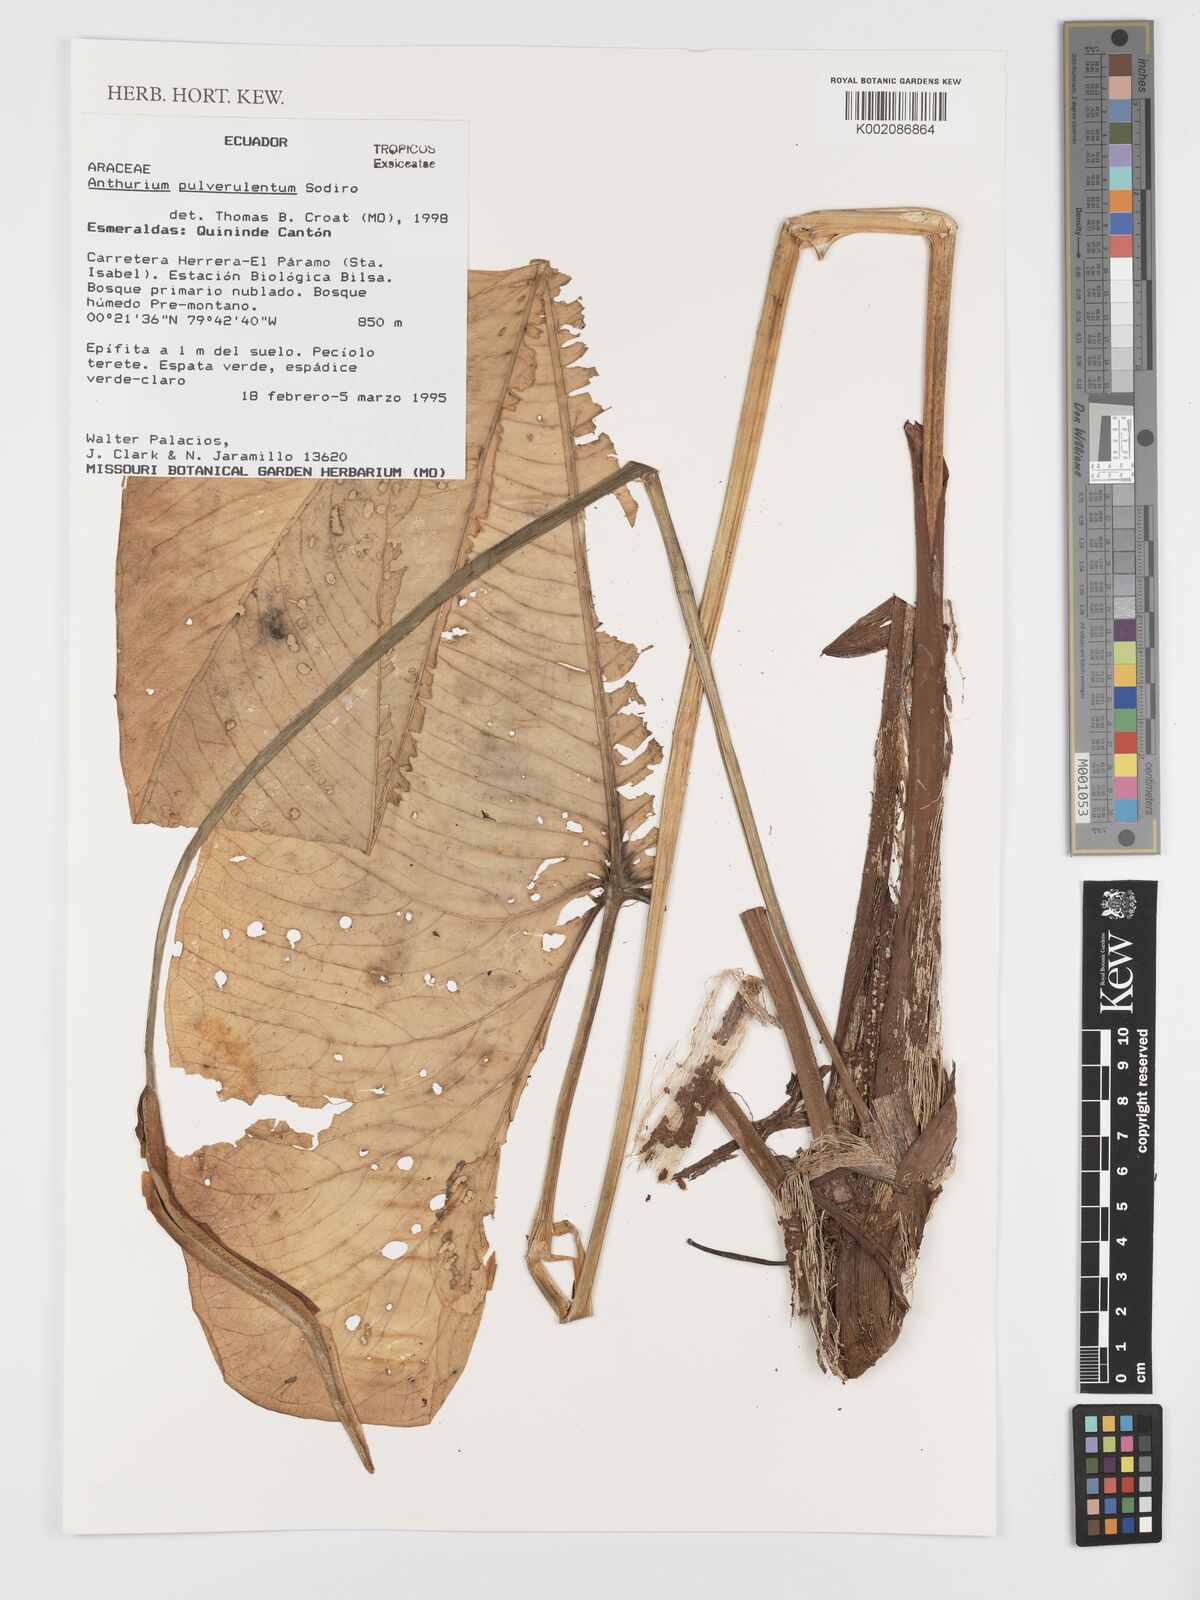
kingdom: Plantae
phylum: Tracheophyta
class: Liliopsida
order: Alismatales
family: Araceae
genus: Anthurium
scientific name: Anthurium pulverulentum
